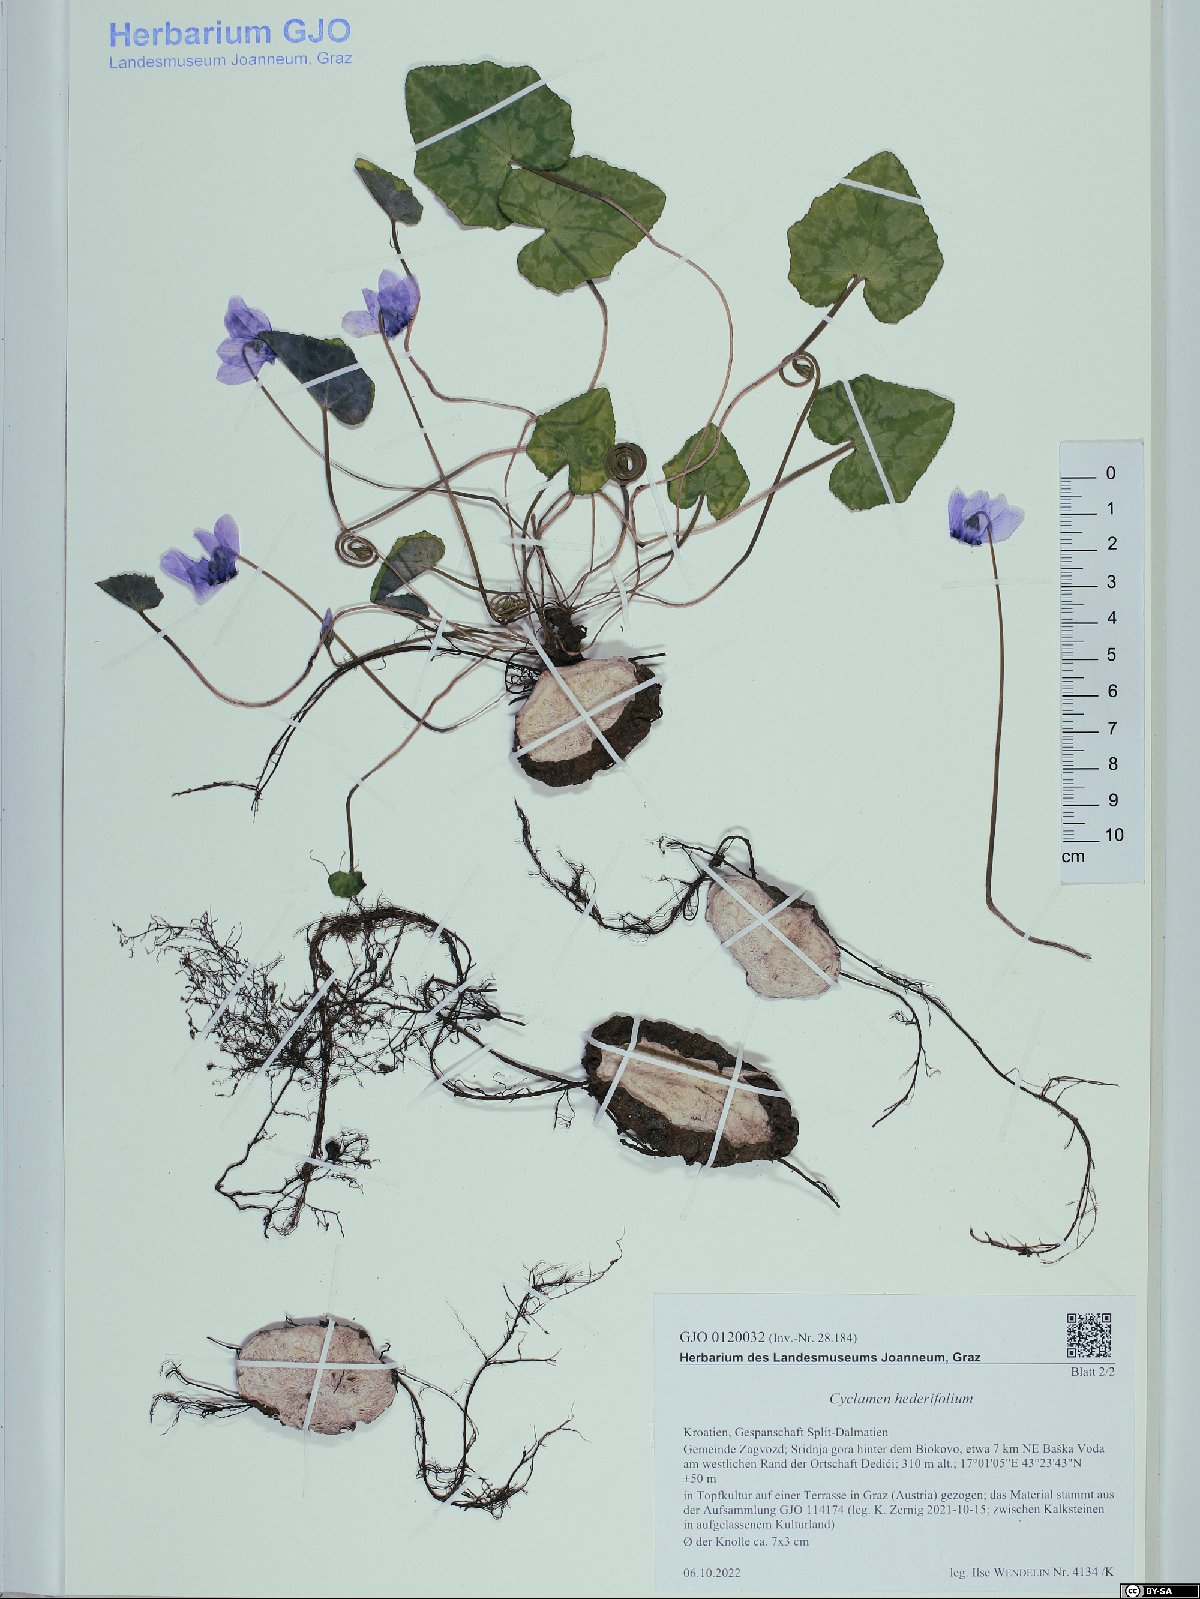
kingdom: Plantae
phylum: Tracheophyta
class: Magnoliopsida
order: Ericales
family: Primulaceae
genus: Cyclamen
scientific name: Cyclamen hederifolium
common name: Sowbread
